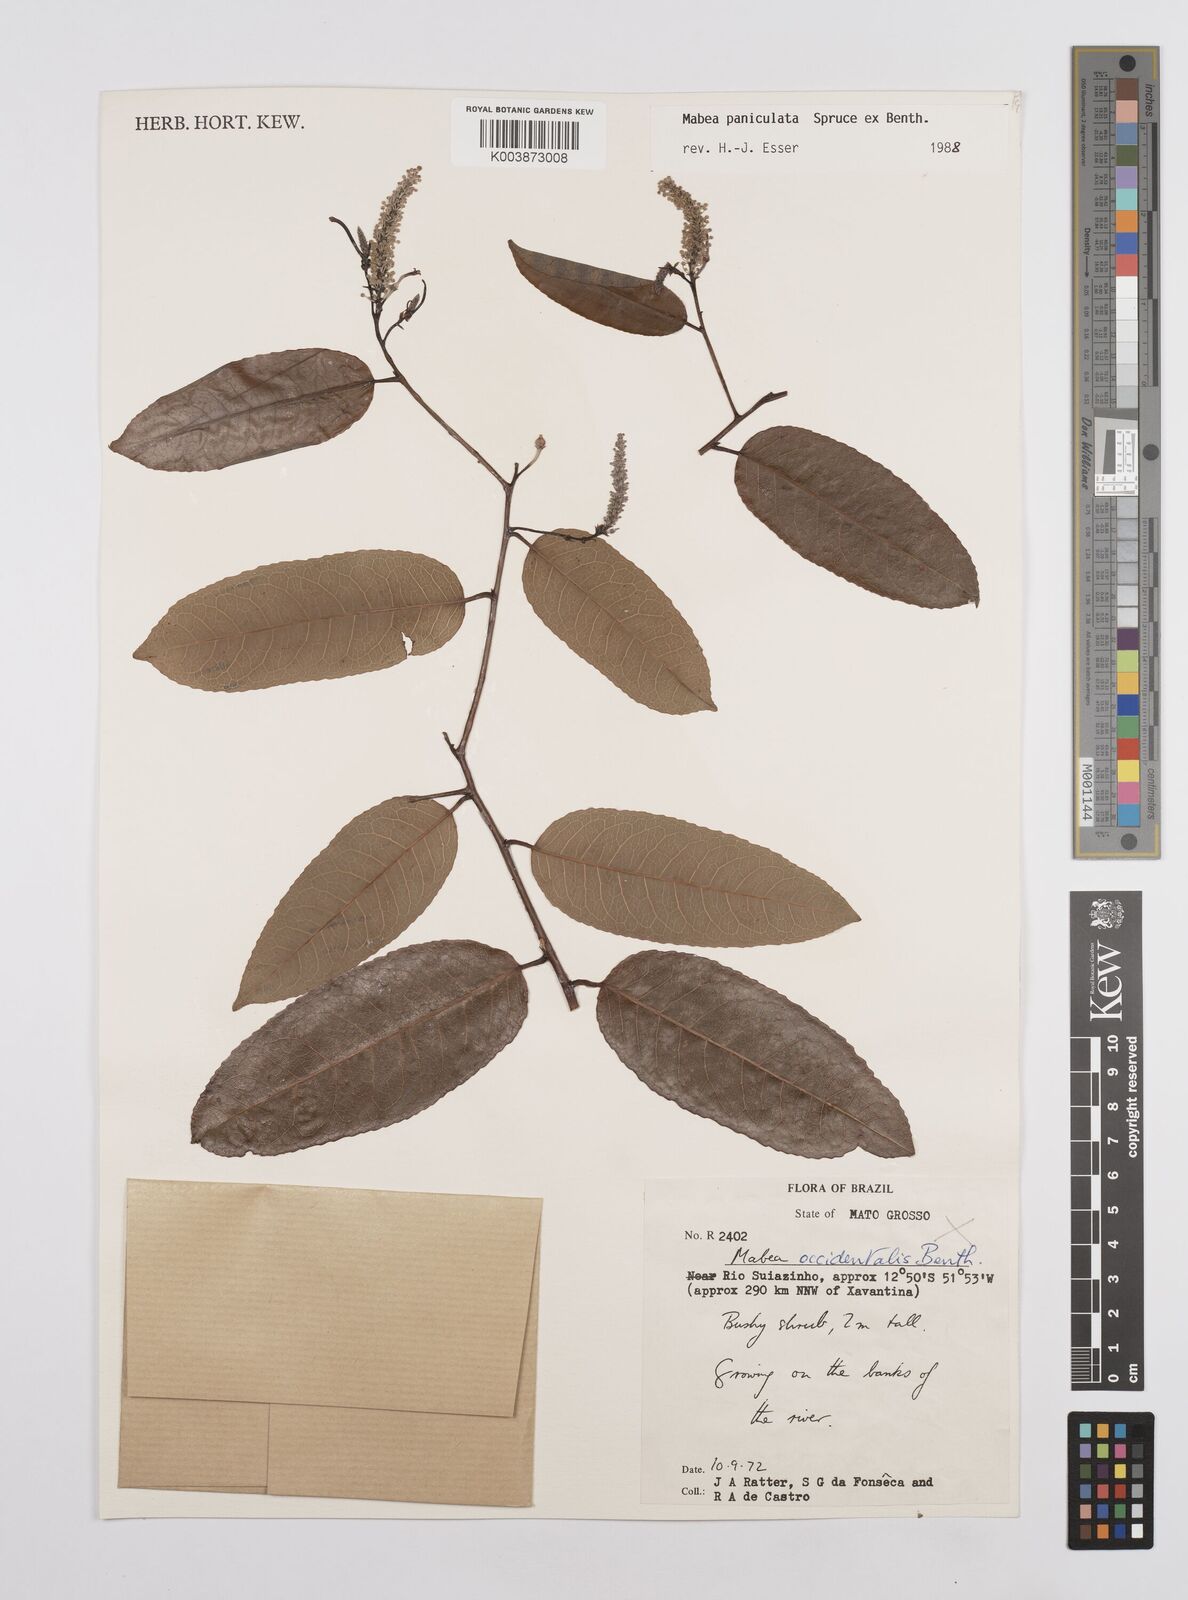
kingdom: Plantae
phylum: Tracheophyta
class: Magnoliopsida
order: Malpighiales
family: Euphorbiaceae
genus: Mabea
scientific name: Mabea taquari
